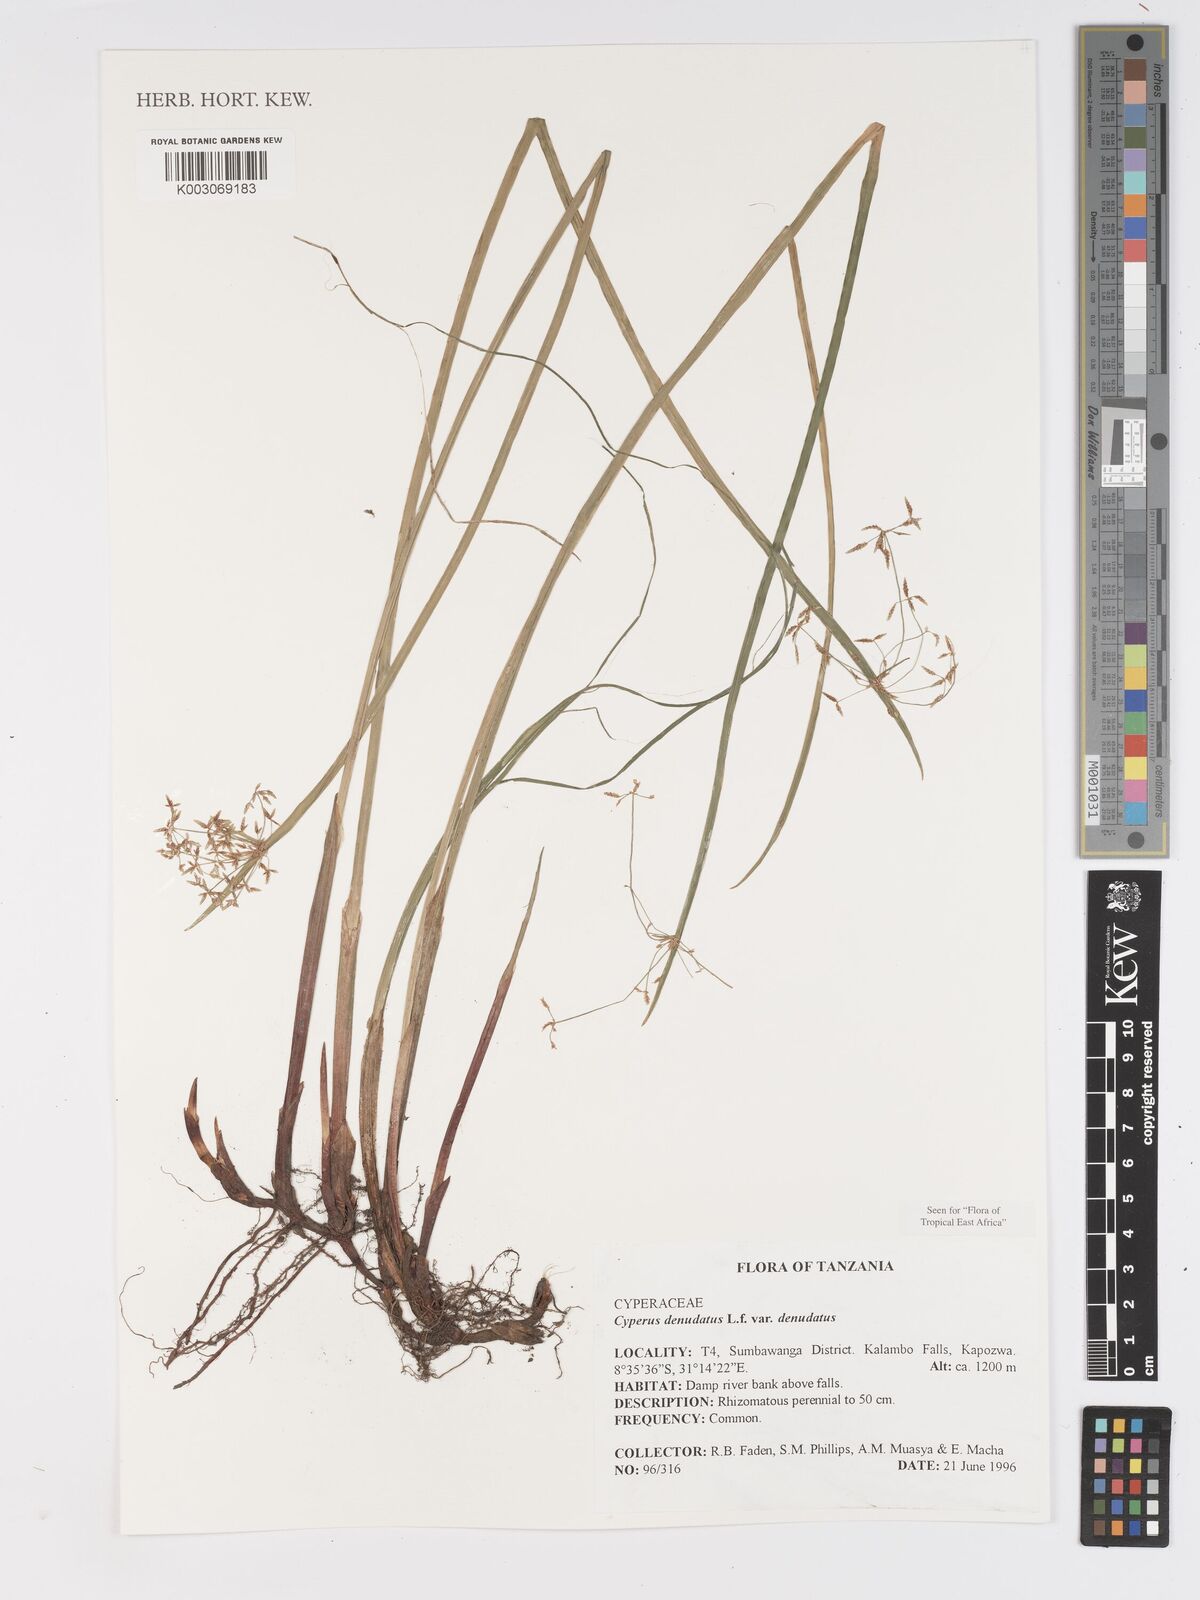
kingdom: Plantae
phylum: Tracheophyta
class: Liliopsida
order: Poales
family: Cyperaceae
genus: Cyperus
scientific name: Cyperus denudatus
